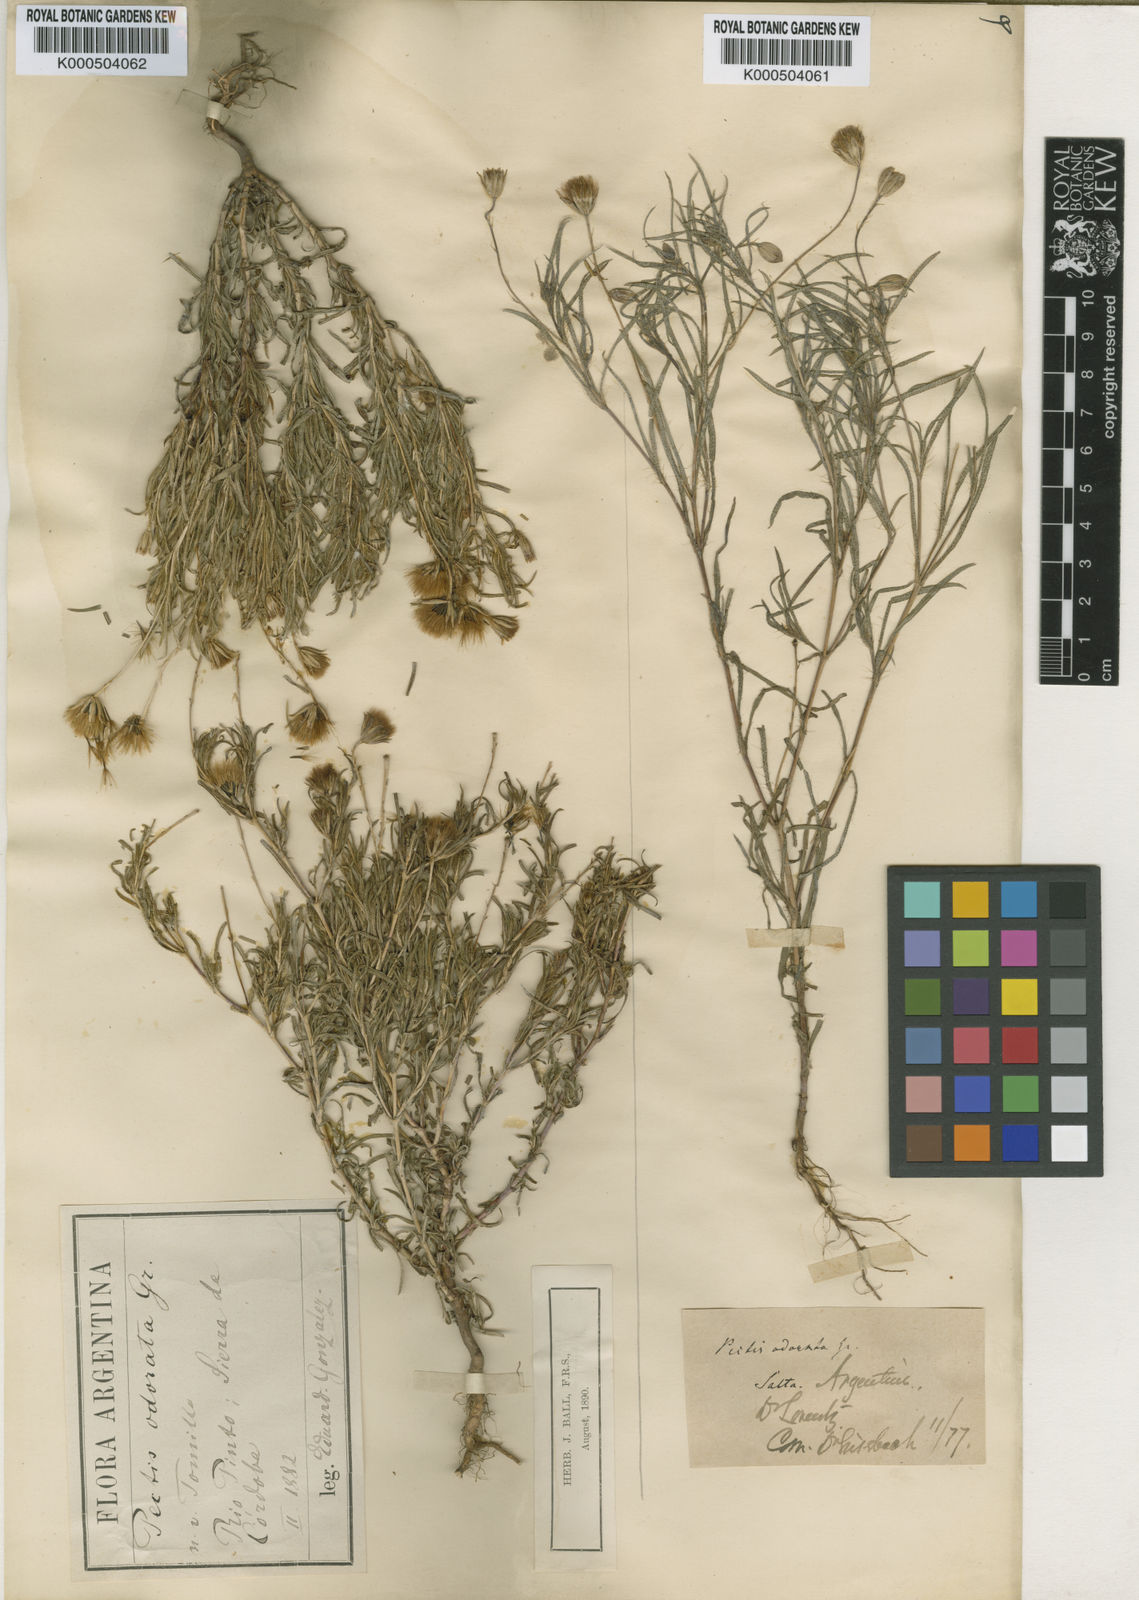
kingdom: Plantae
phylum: Tracheophyta
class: Magnoliopsida
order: Asterales
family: Asteraceae
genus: Pectis
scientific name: Pectis odorata
